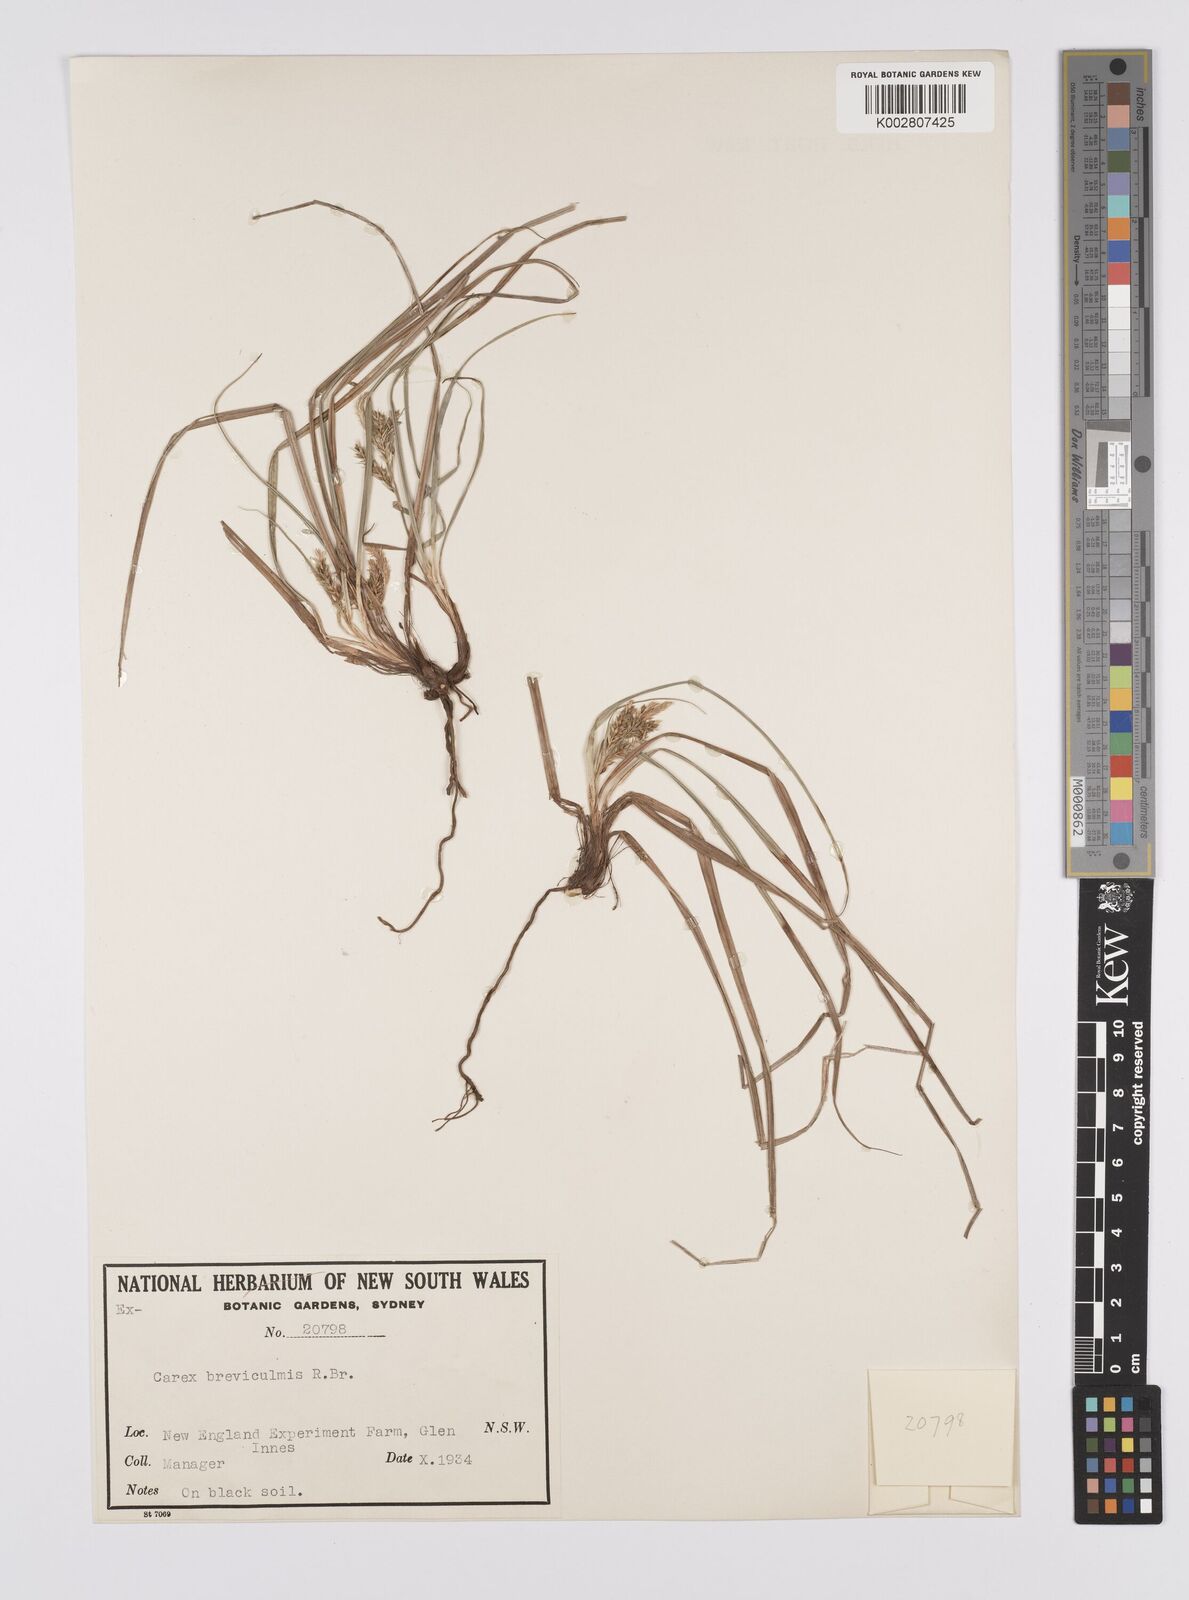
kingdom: Plantae
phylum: Tracheophyta
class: Liliopsida
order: Poales
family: Cyperaceae
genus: Carex
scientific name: Carex breviculmis
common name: Asian shortstem sedge
